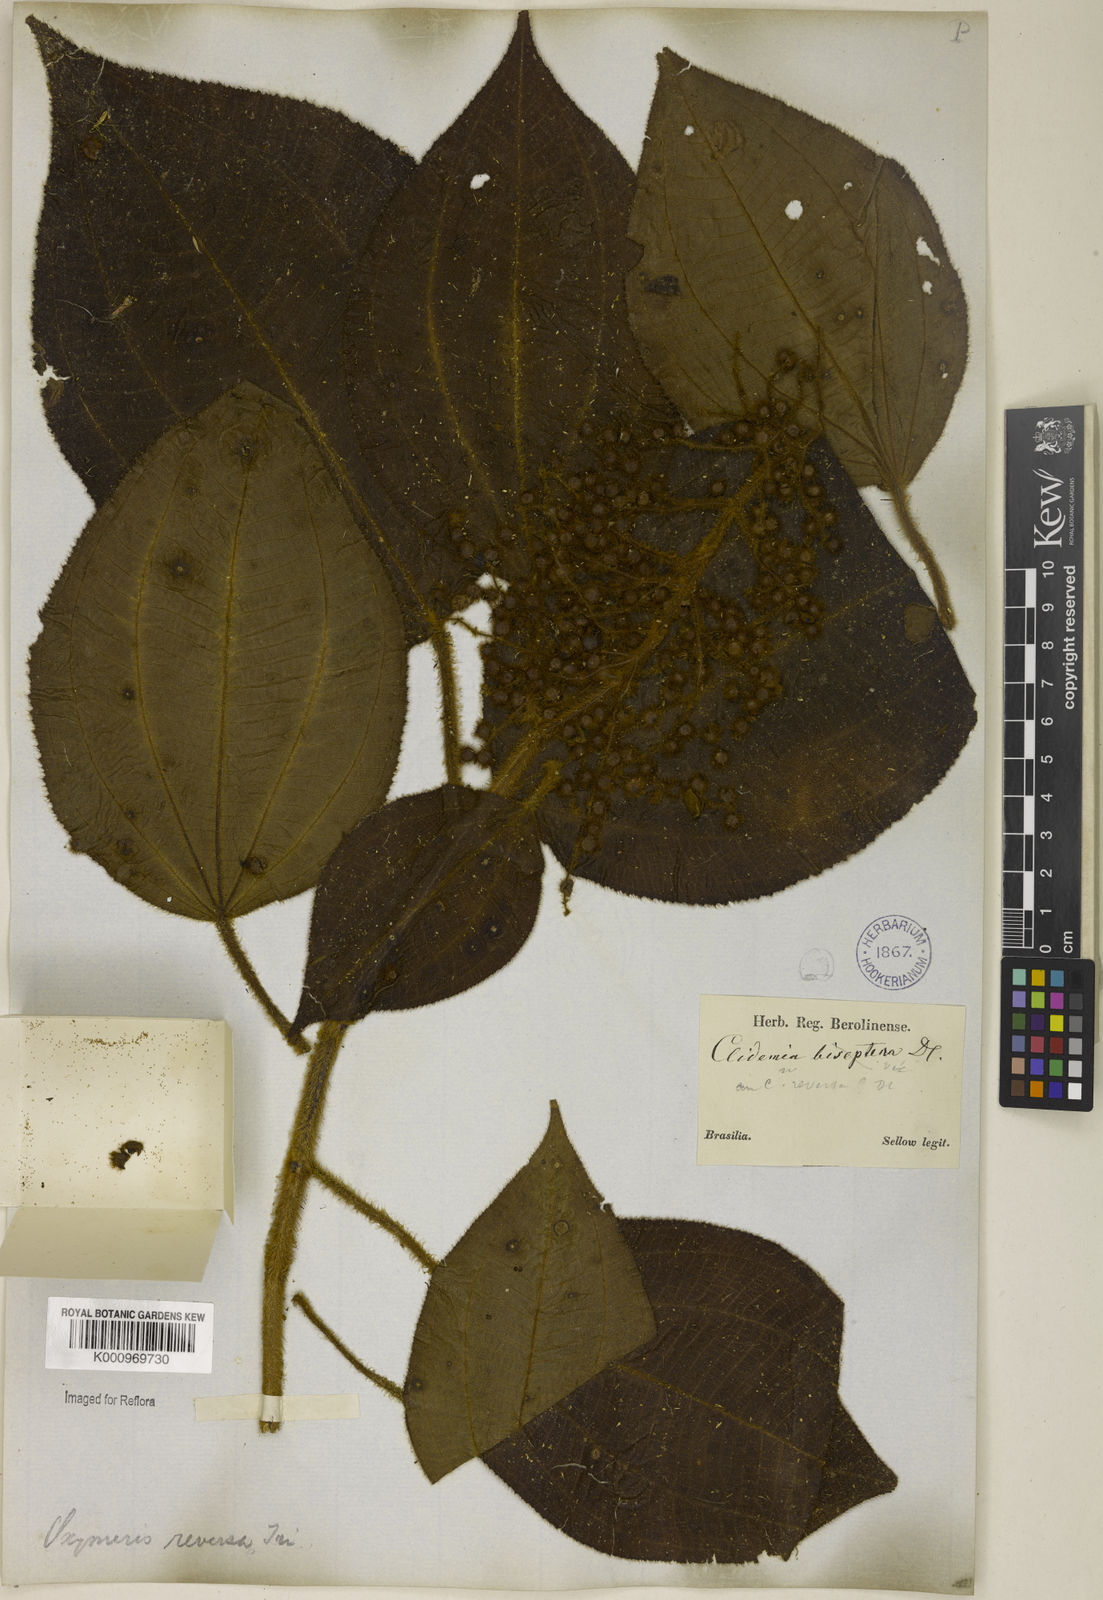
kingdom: Plantae
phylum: Tracheophyta
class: Magnoliopsida
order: Myrtales
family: Melastomataceae
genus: Miconia
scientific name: Miconia reversa
